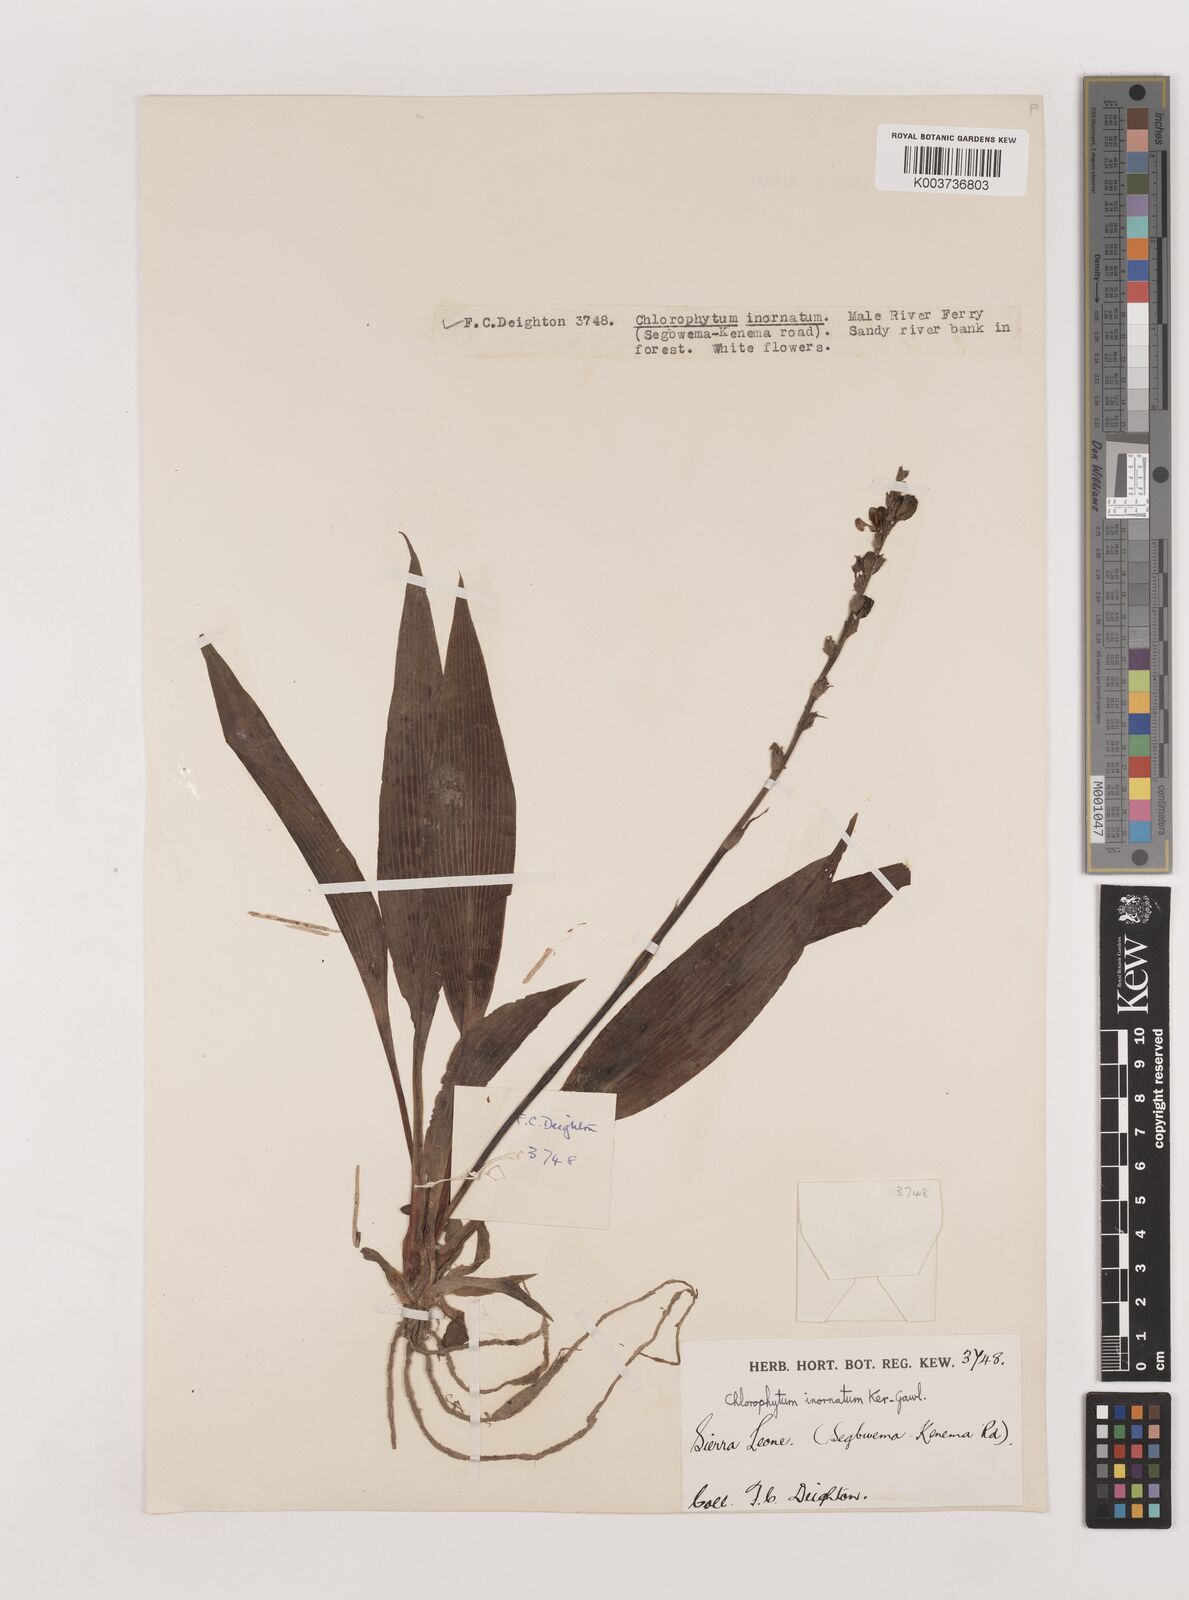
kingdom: Plantae
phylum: Tracheophyta
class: Liliopsida
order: Asparagales
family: Asparagaceae
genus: Chlorophytum
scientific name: Chlorophytum inornatum
